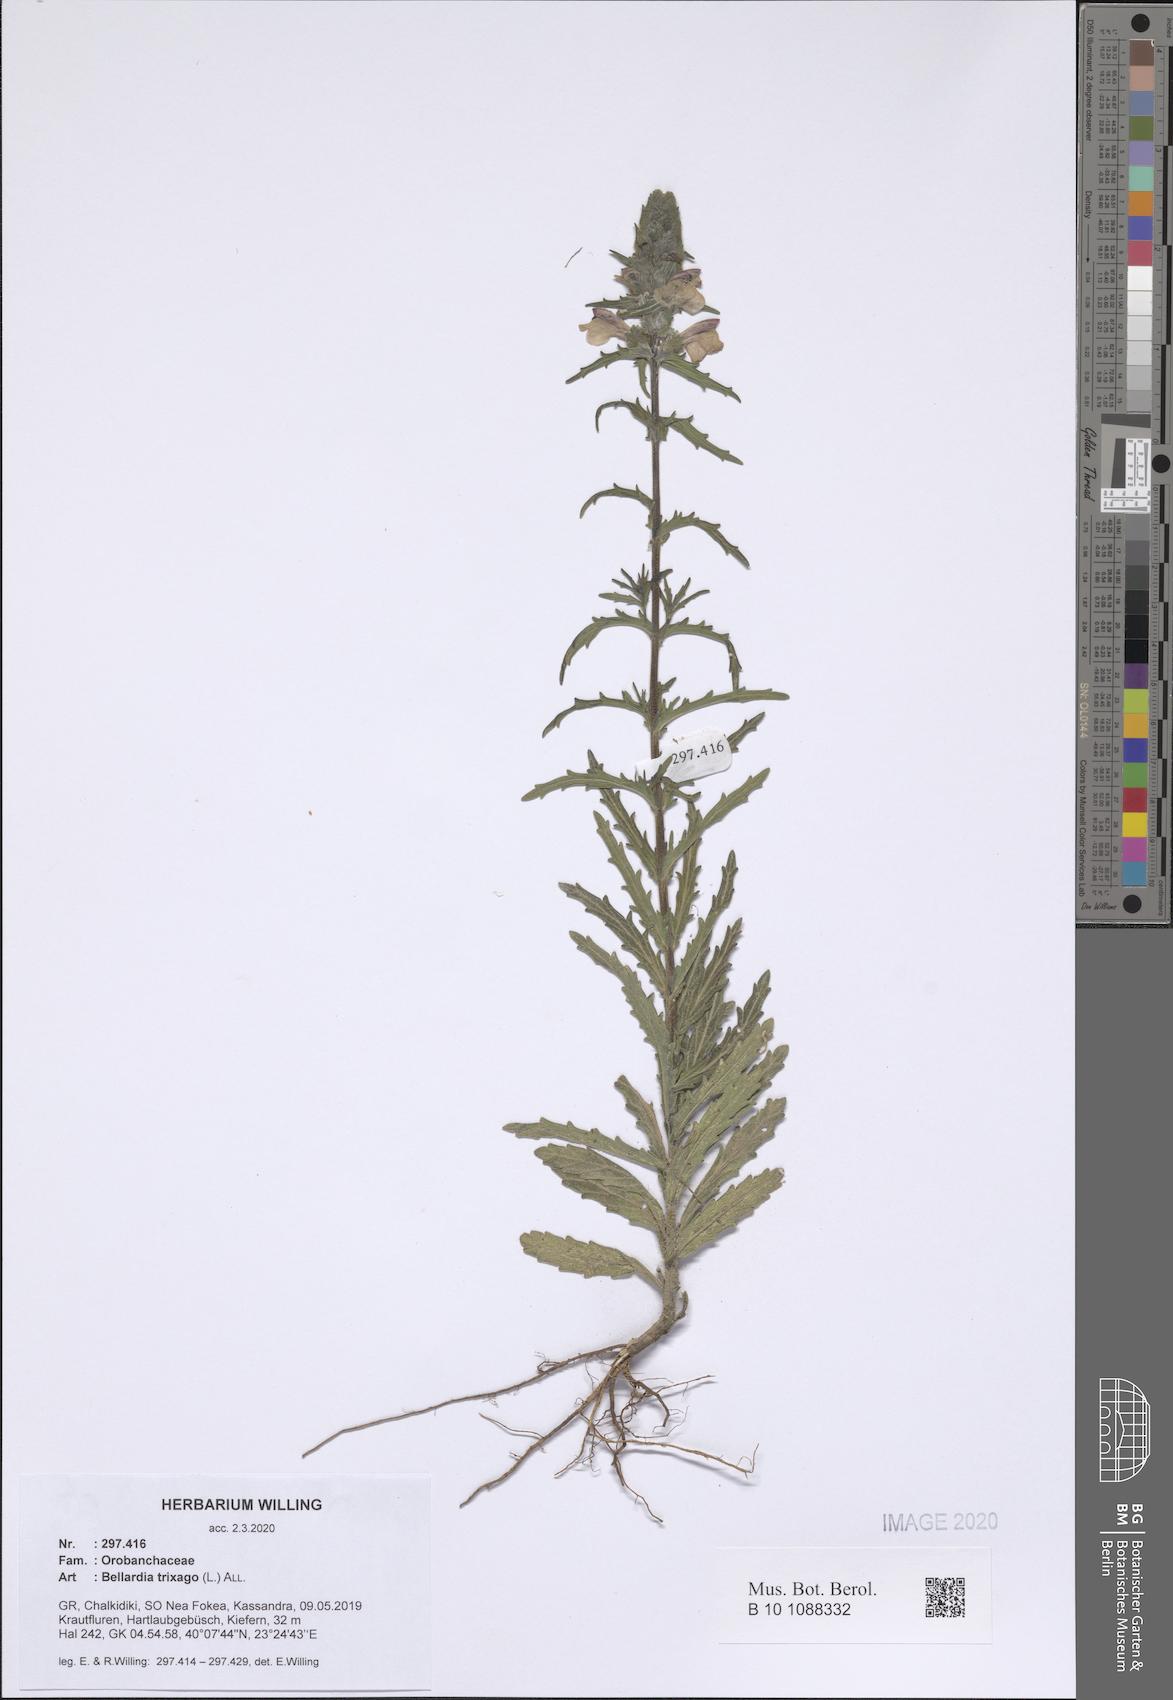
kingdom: Plantae
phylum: Tracheophyta
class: Magnoliopsida
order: Lamiales
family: Orobanchaceae
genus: Bellardia
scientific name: Bellardia trixago
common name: Mediterranean lineseed
